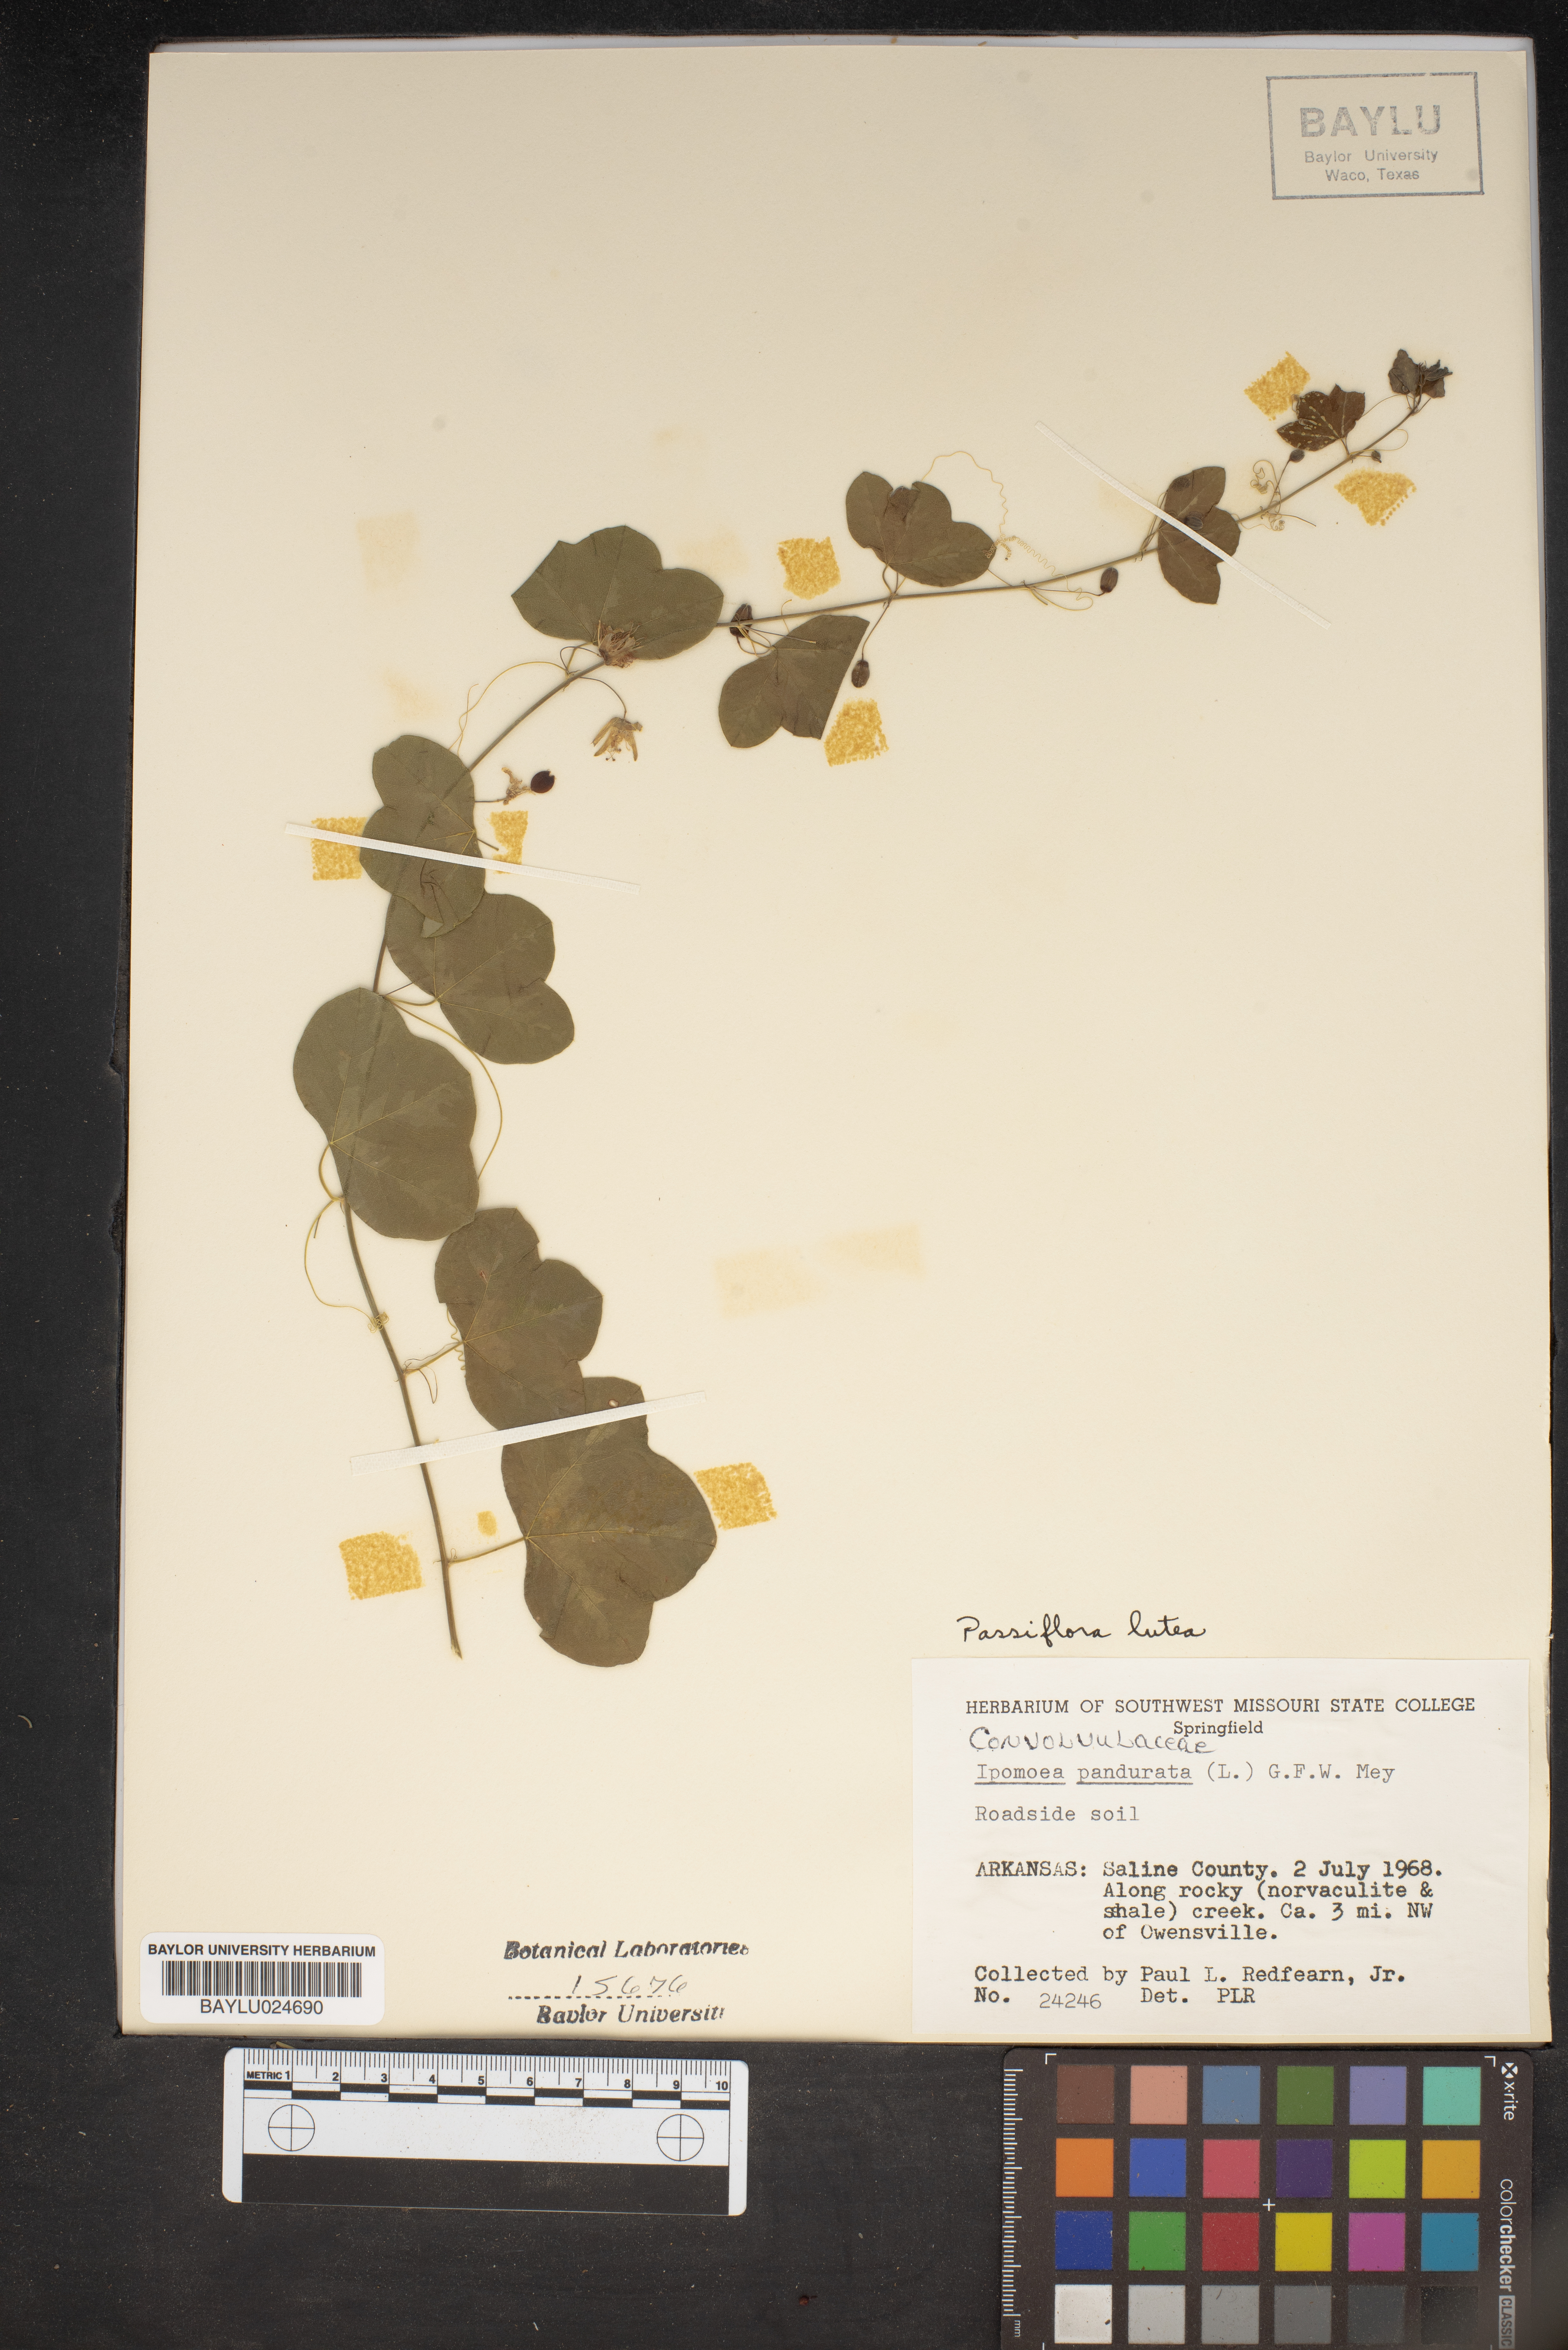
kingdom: Plantae
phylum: Tracheophyta
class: Magnoliopsida
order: Solanales
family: Convolvulaceae
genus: Ipomoea
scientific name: Ipomoea pandurata
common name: Man-of-the-earth
